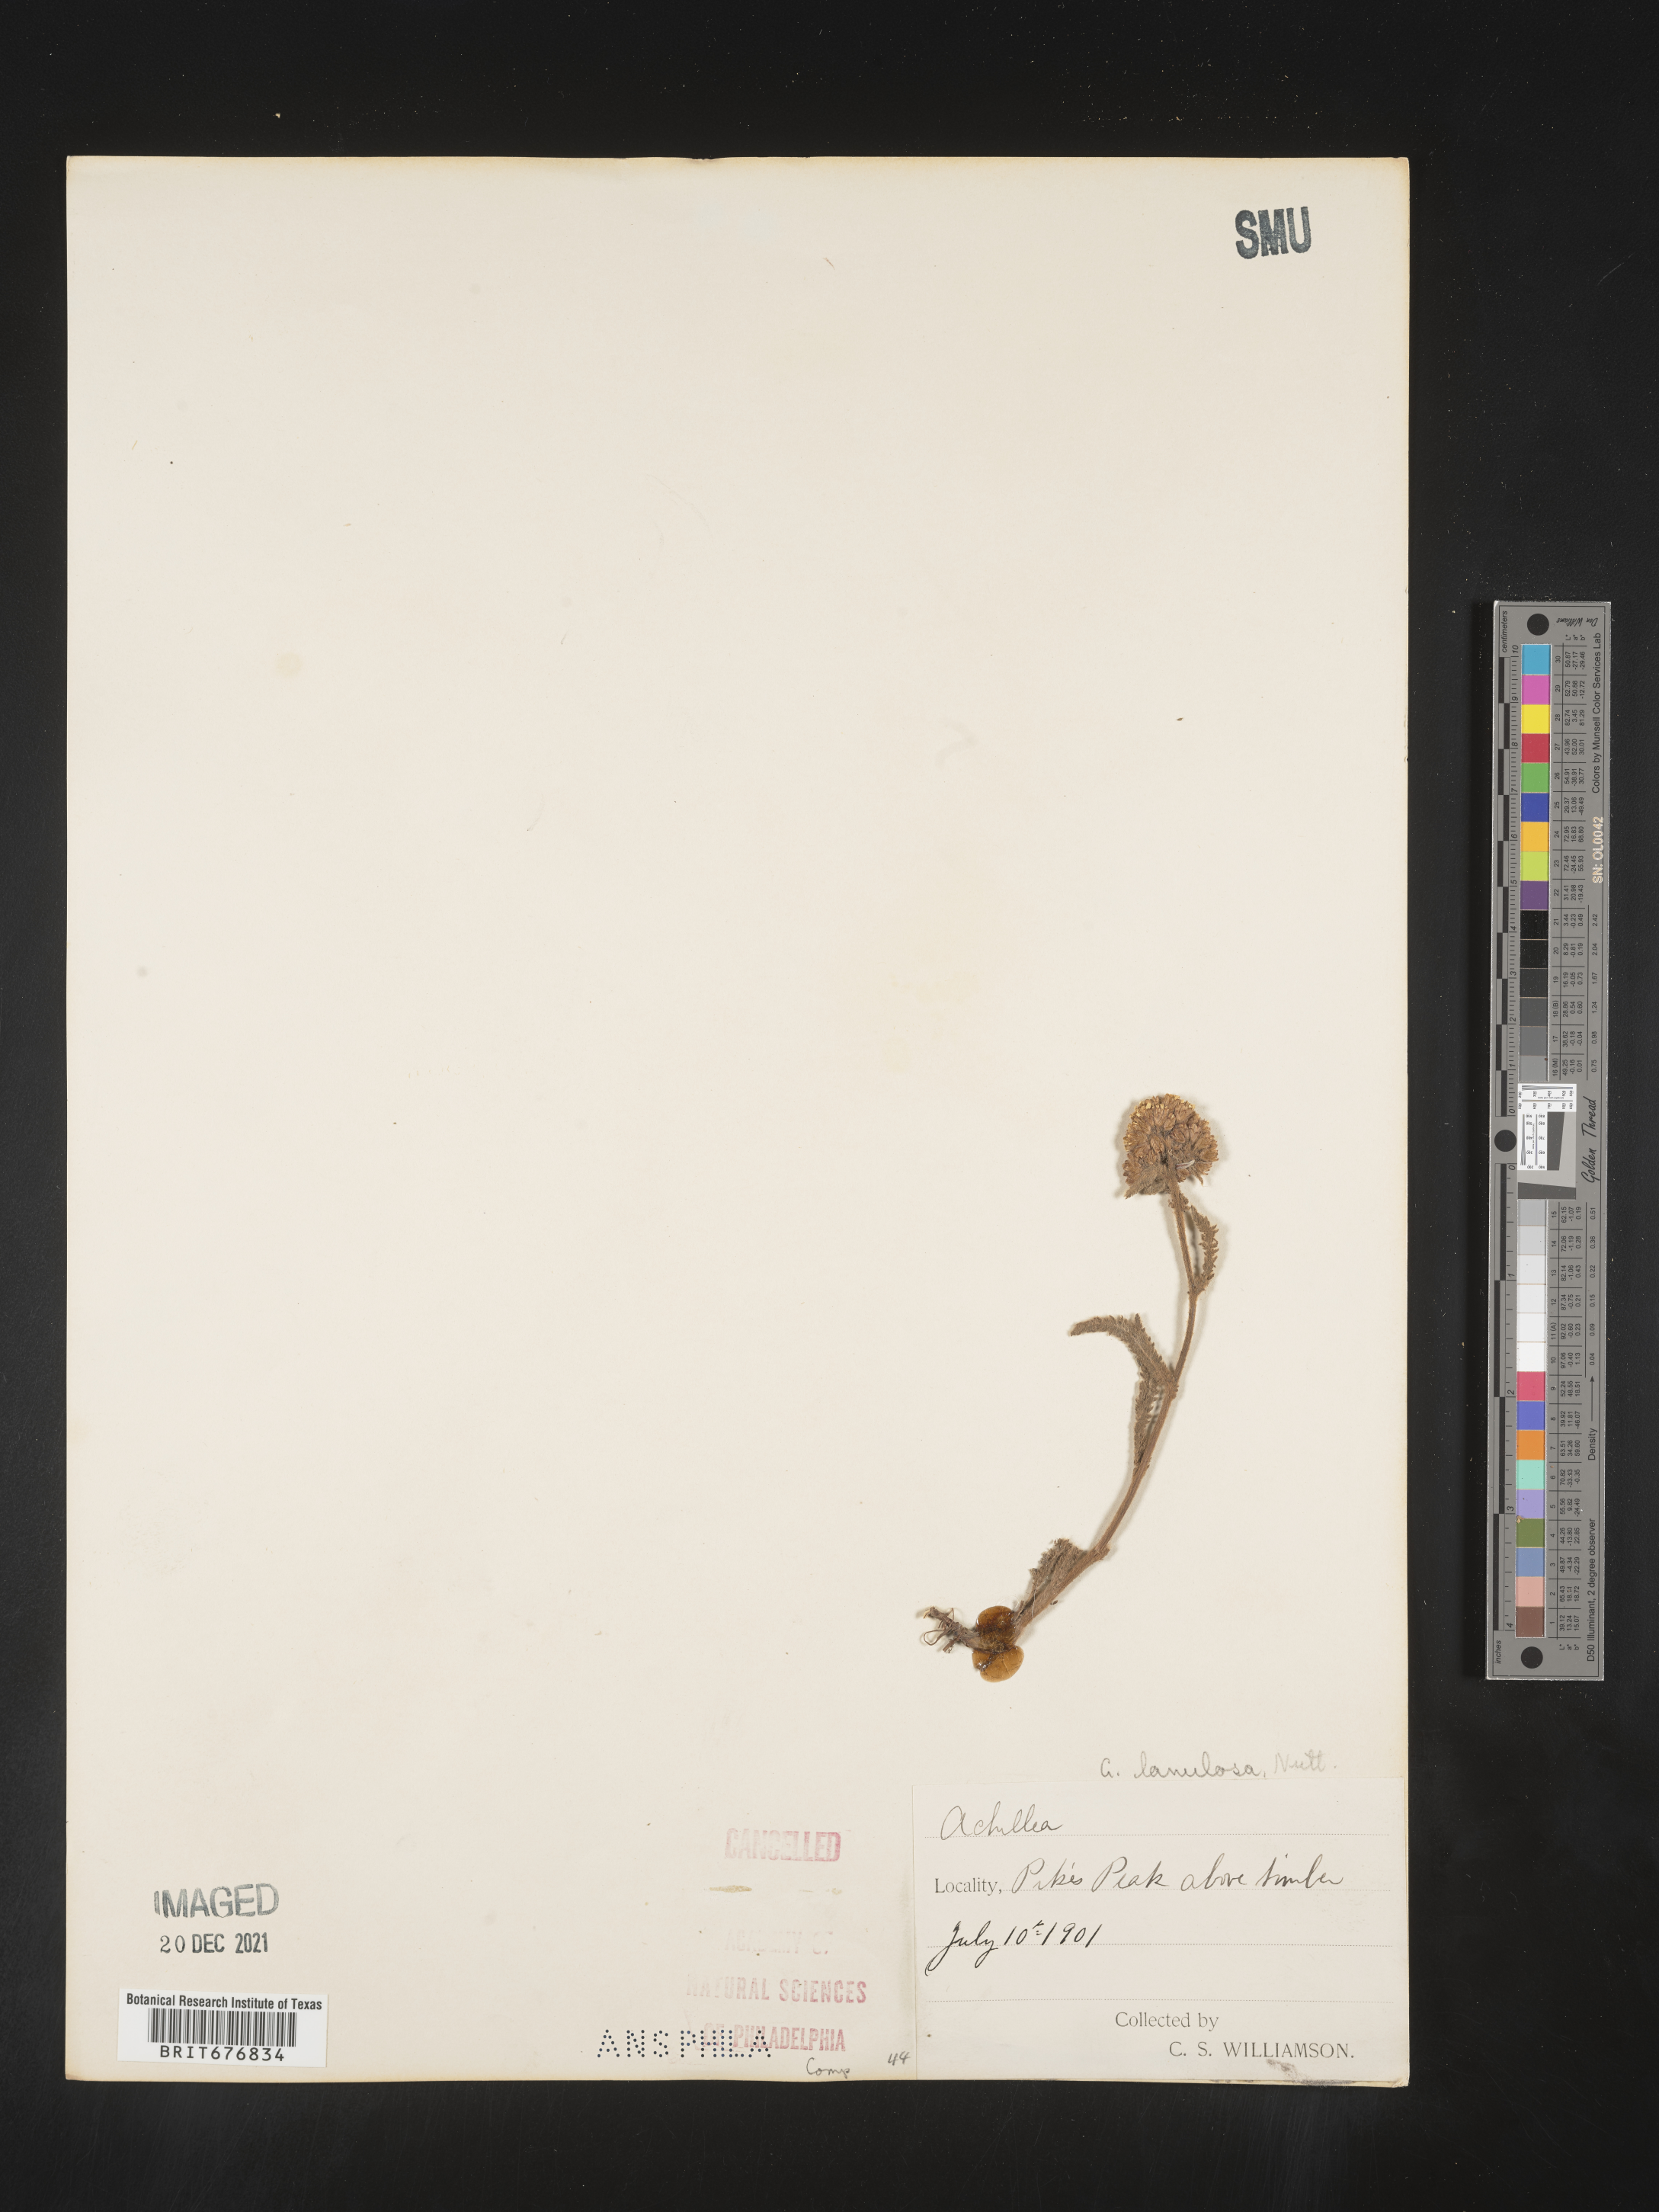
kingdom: Plantae
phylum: Tracheophyta
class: Magnoliopsida
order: Asterales
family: Asteraceae
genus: Achillea
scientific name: Achillea millefolium
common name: Yarrow
